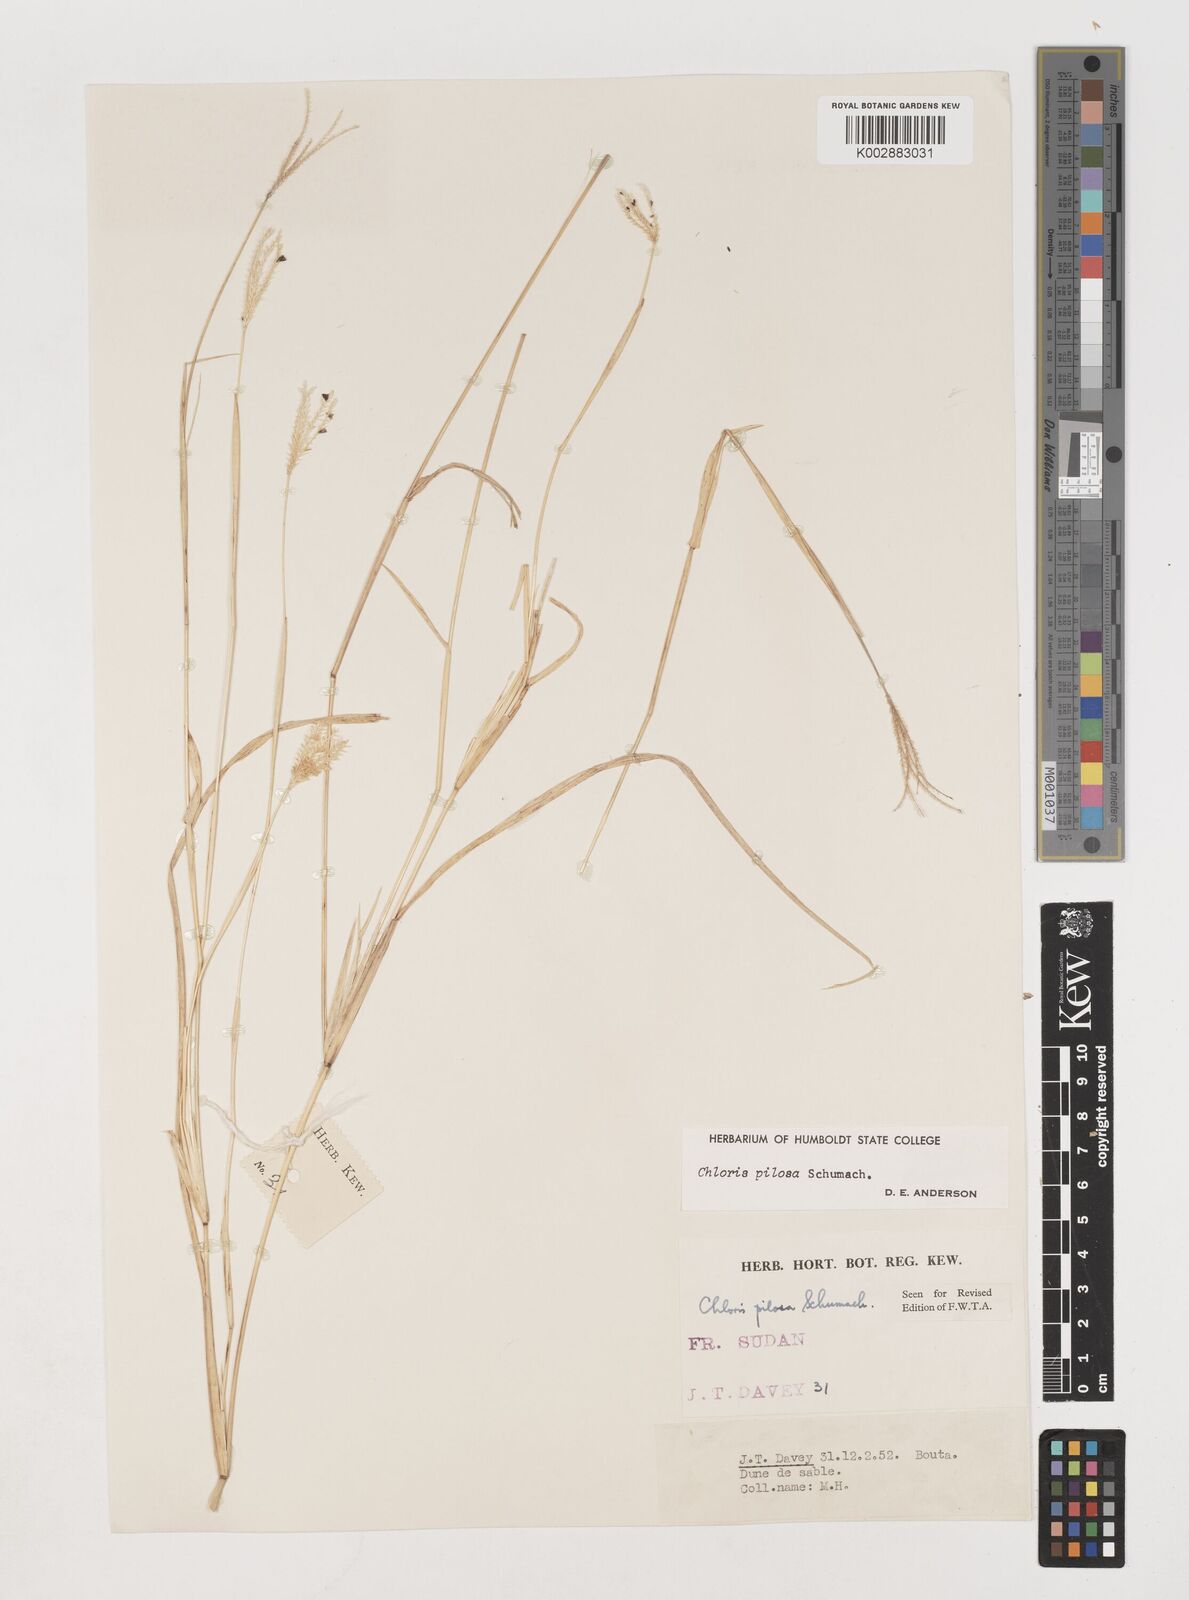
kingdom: Plantae
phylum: Tracheophyta
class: Liliopsida
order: Poales
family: Poaceae
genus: Chloris
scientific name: Chloris pilosa
